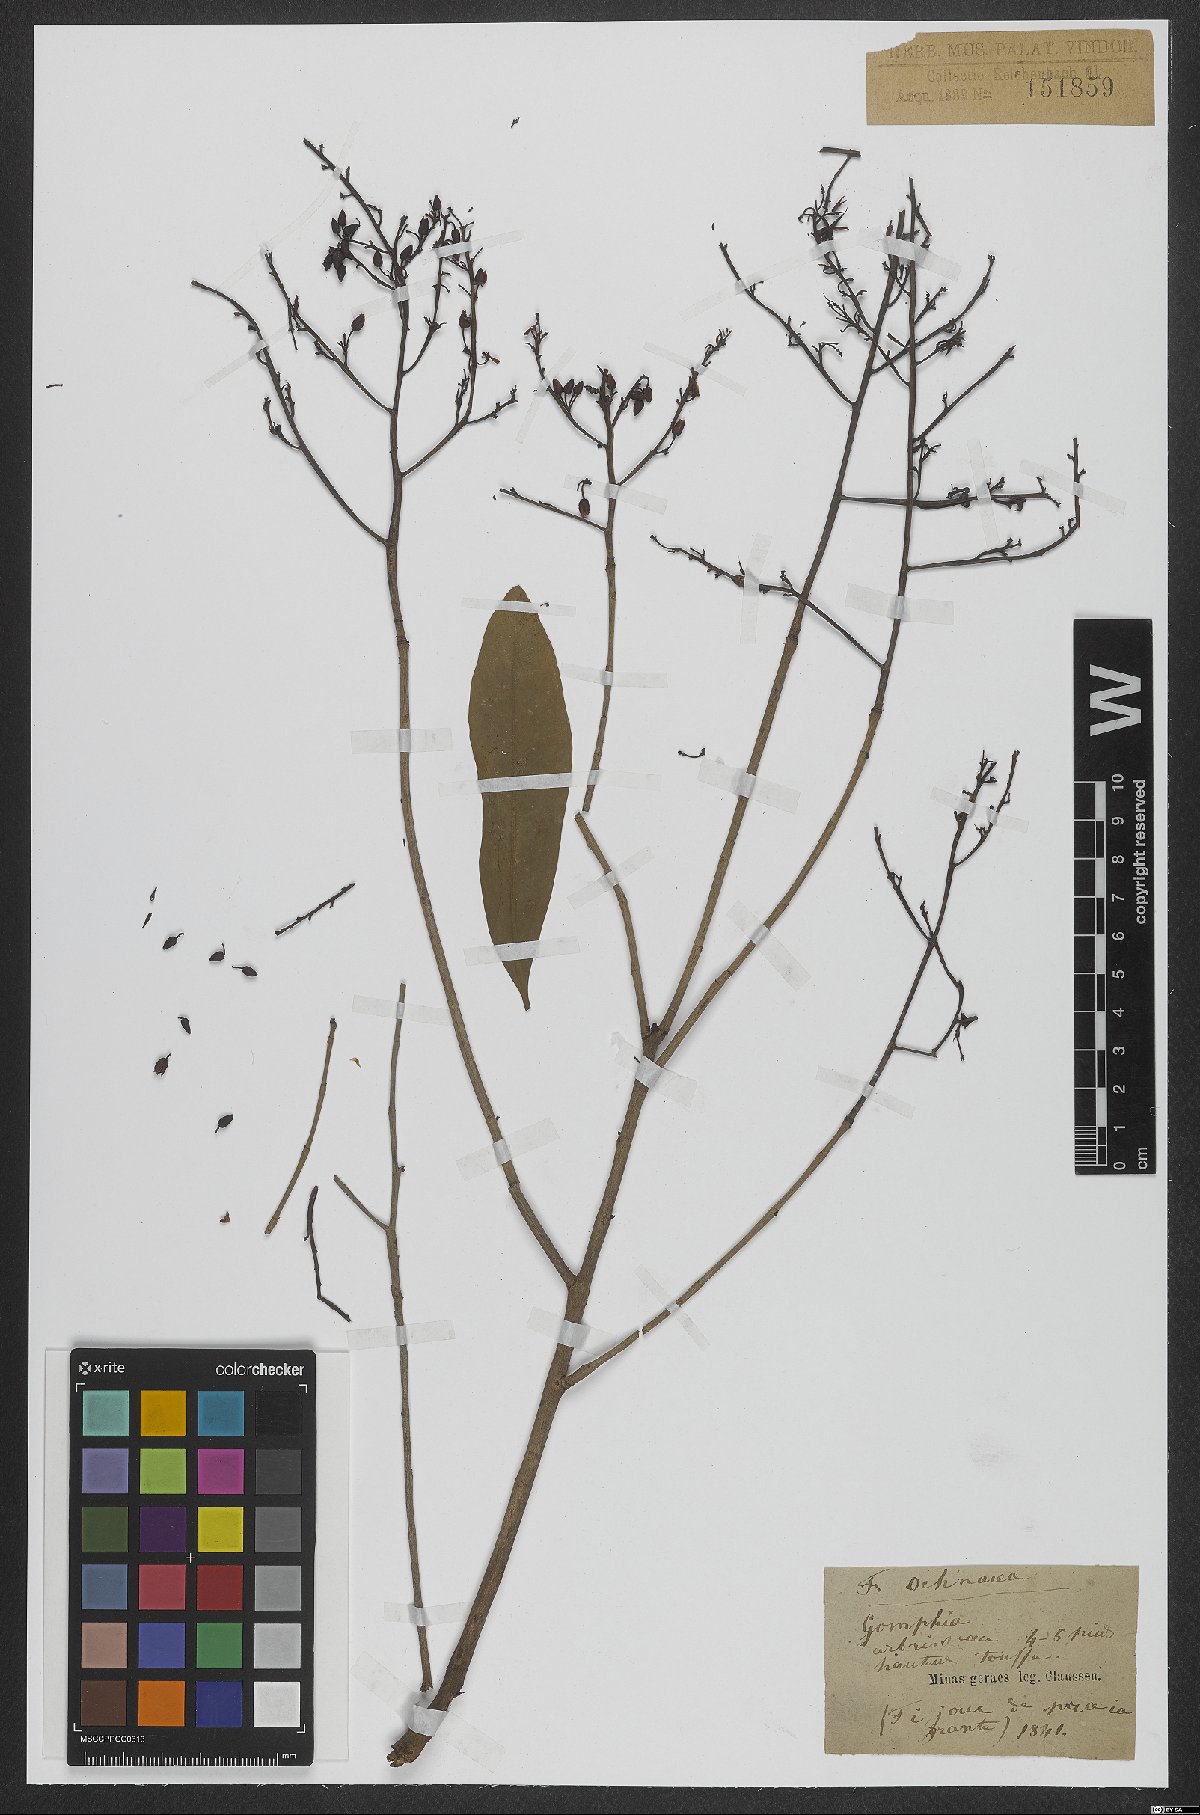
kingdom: Plantae
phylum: Tracheophyta
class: Magnoliopsida
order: Malpighiales
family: Ochnaceae
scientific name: Ochnaceae
